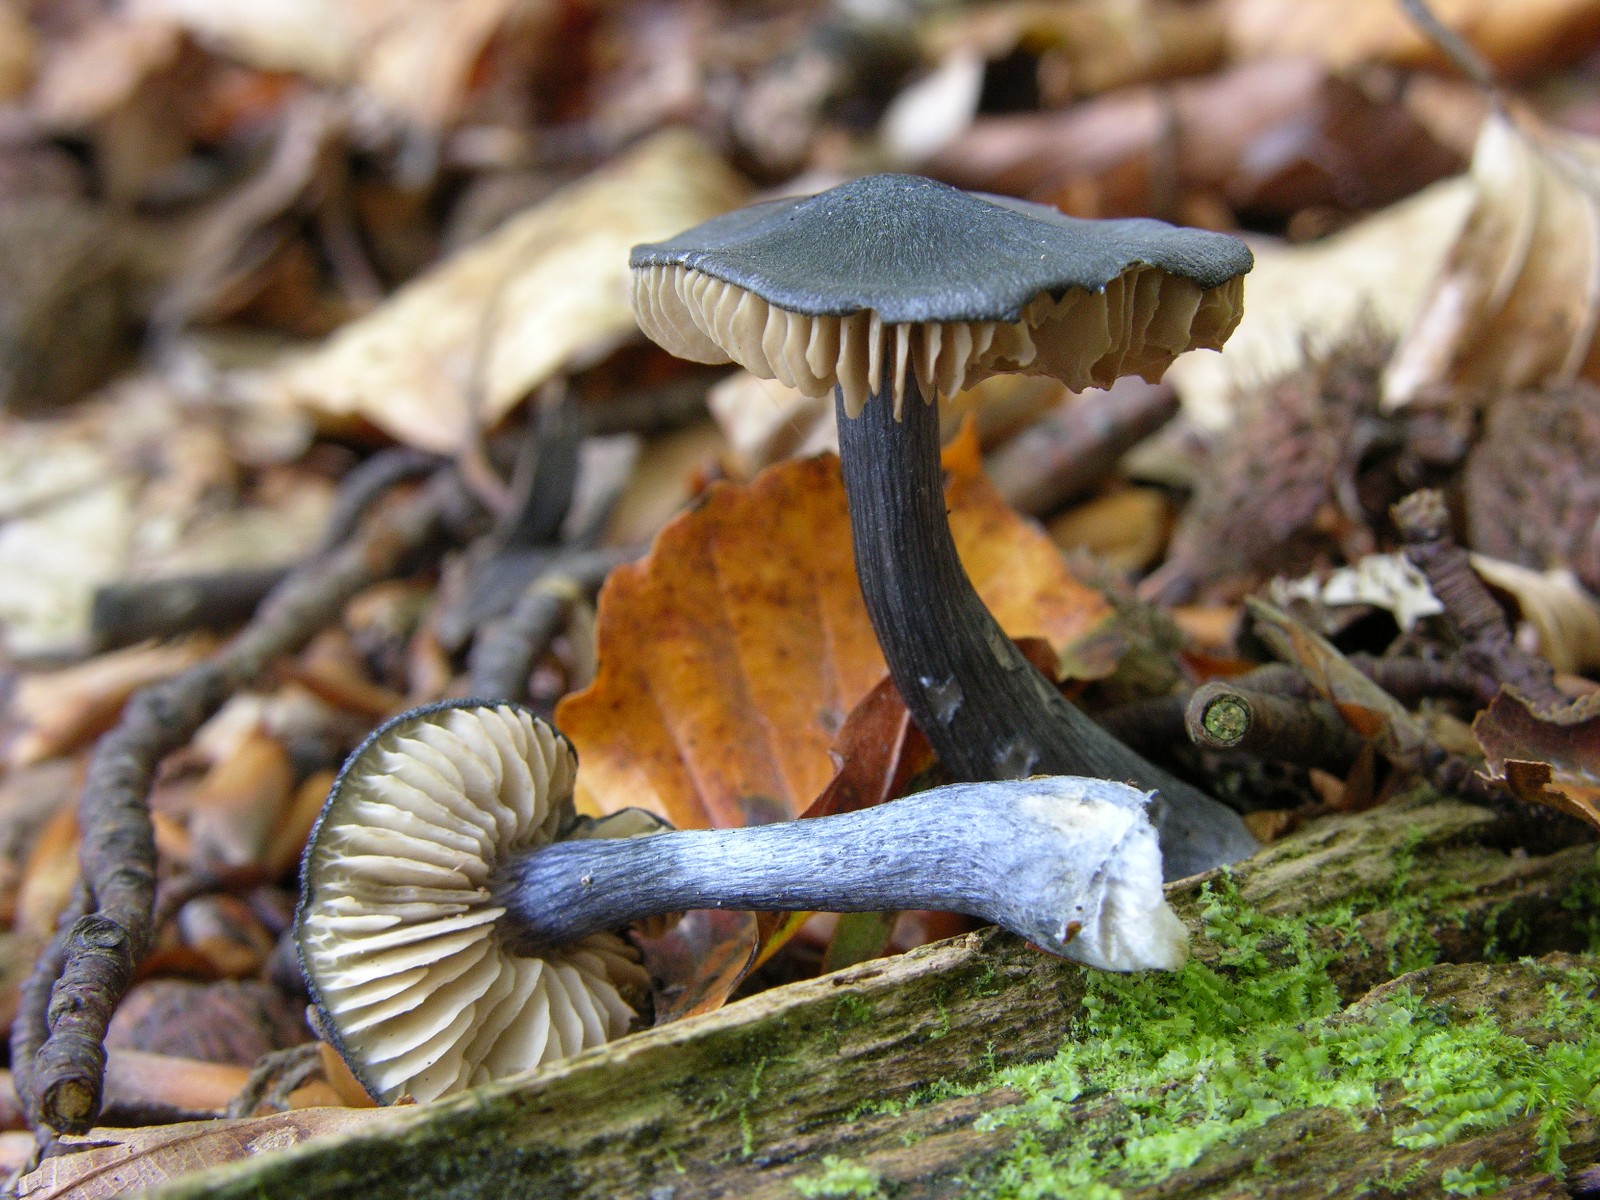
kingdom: Fungi
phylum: Basidiomycota
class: Agaricomycetes
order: Agaricales
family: Entolomataceae
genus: Entocybe
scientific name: Entocybe nitida
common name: stålblå rødblad
